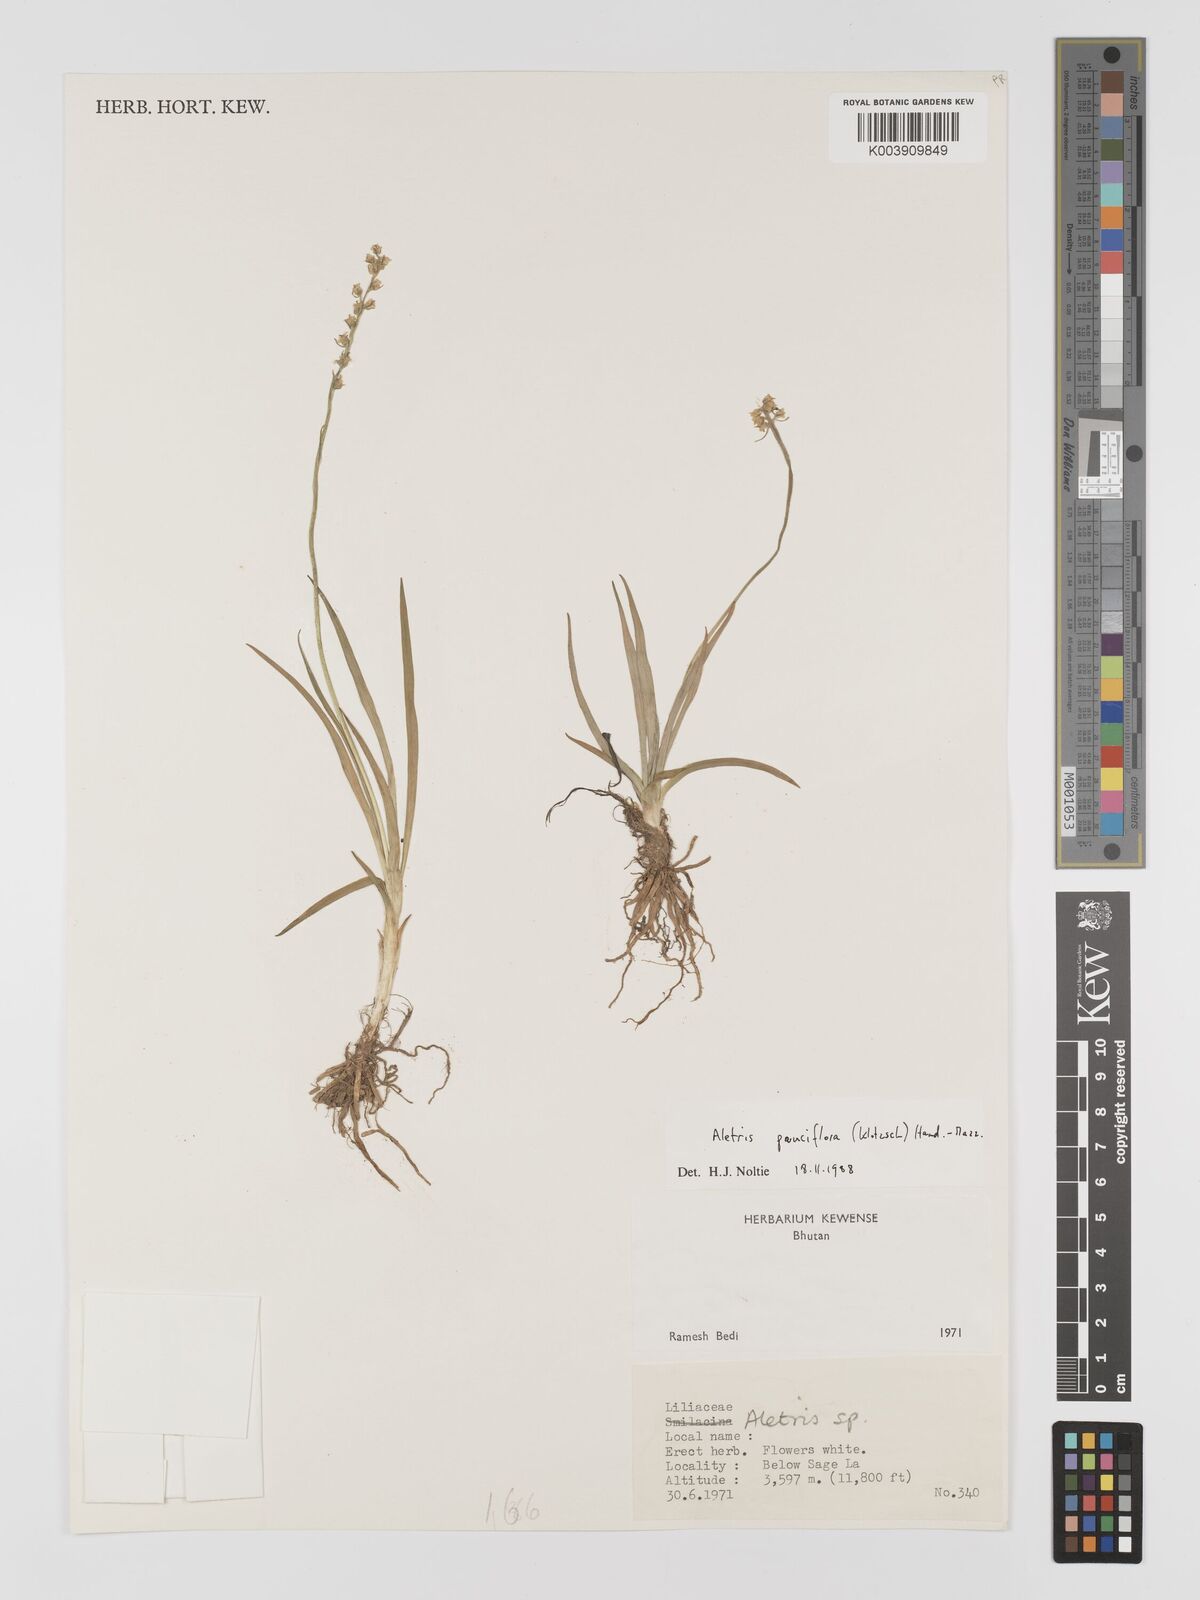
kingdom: Plantae
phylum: Tracheophyta
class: Liliopsida
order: Dioscoreales
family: Nartheciaceae
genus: Aletris
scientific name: Aletris pauciflora
